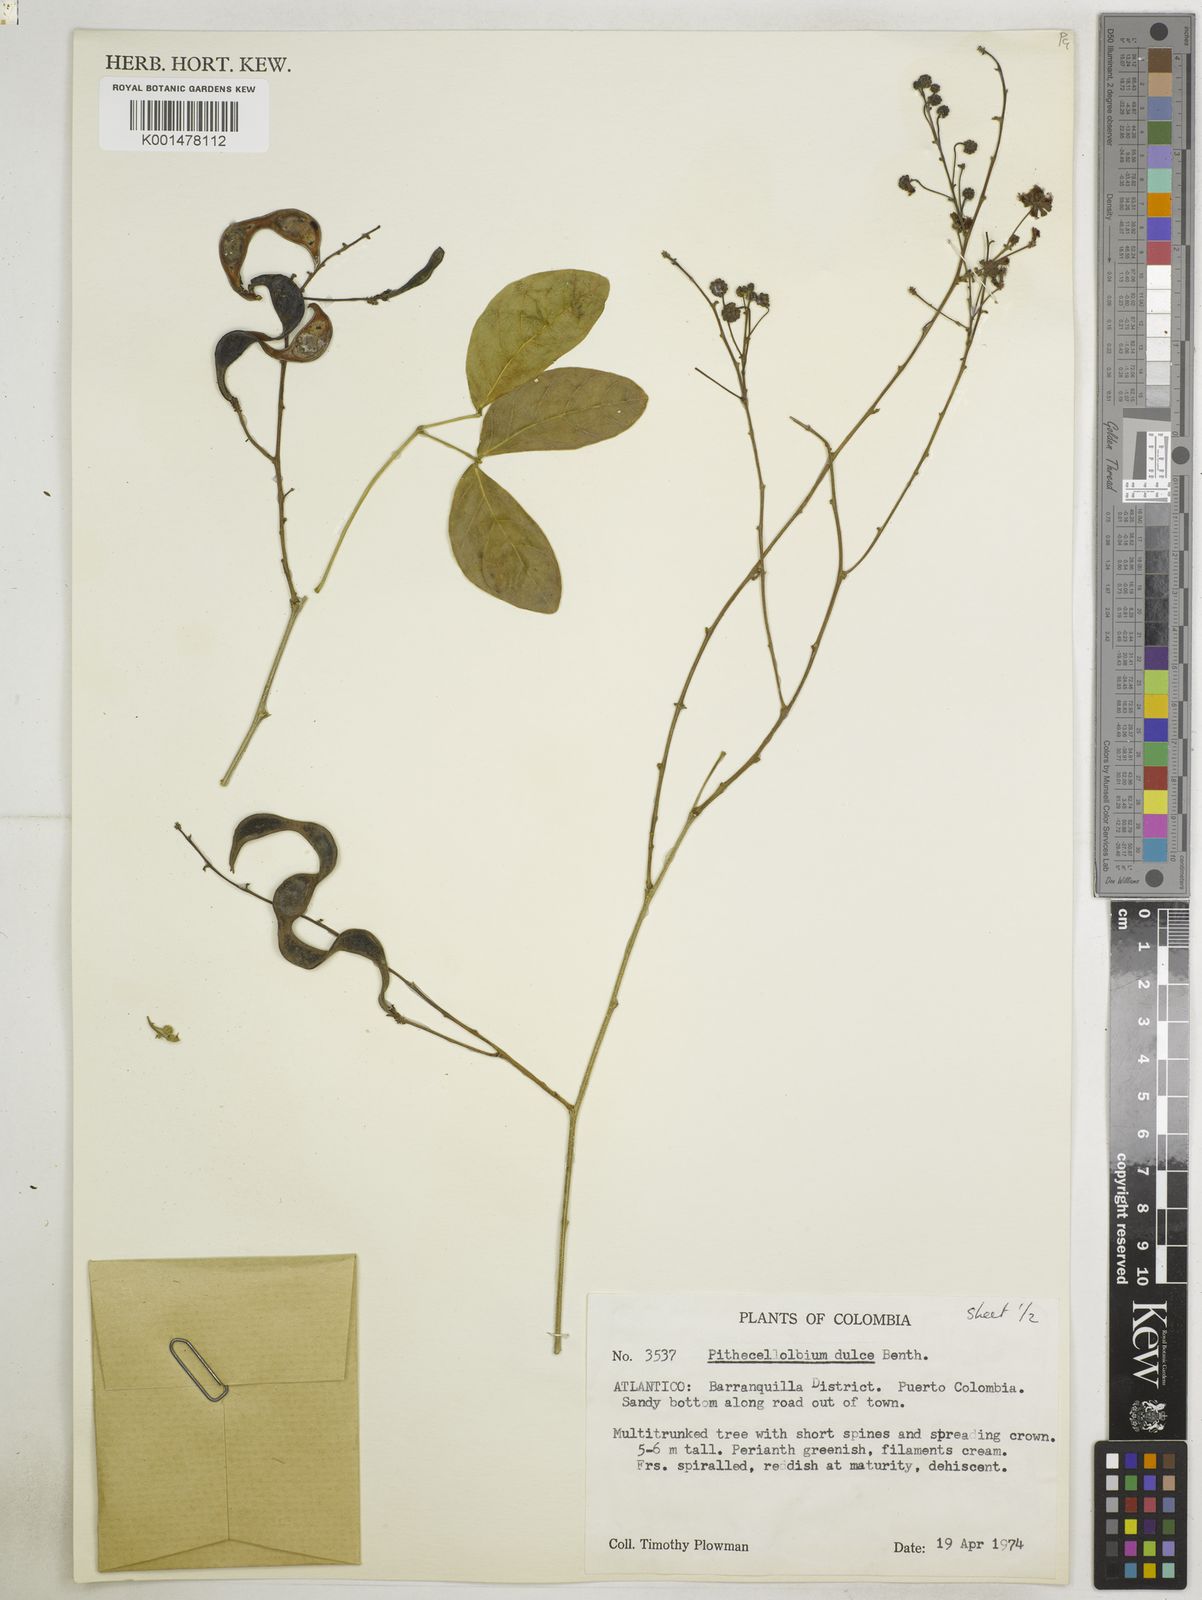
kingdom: Plantae
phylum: Tracheophyta
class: Magnoliopsida
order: Fabales
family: Fabaceae
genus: Pithecellobium
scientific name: Pithecellobium dulce
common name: Monkeypod
